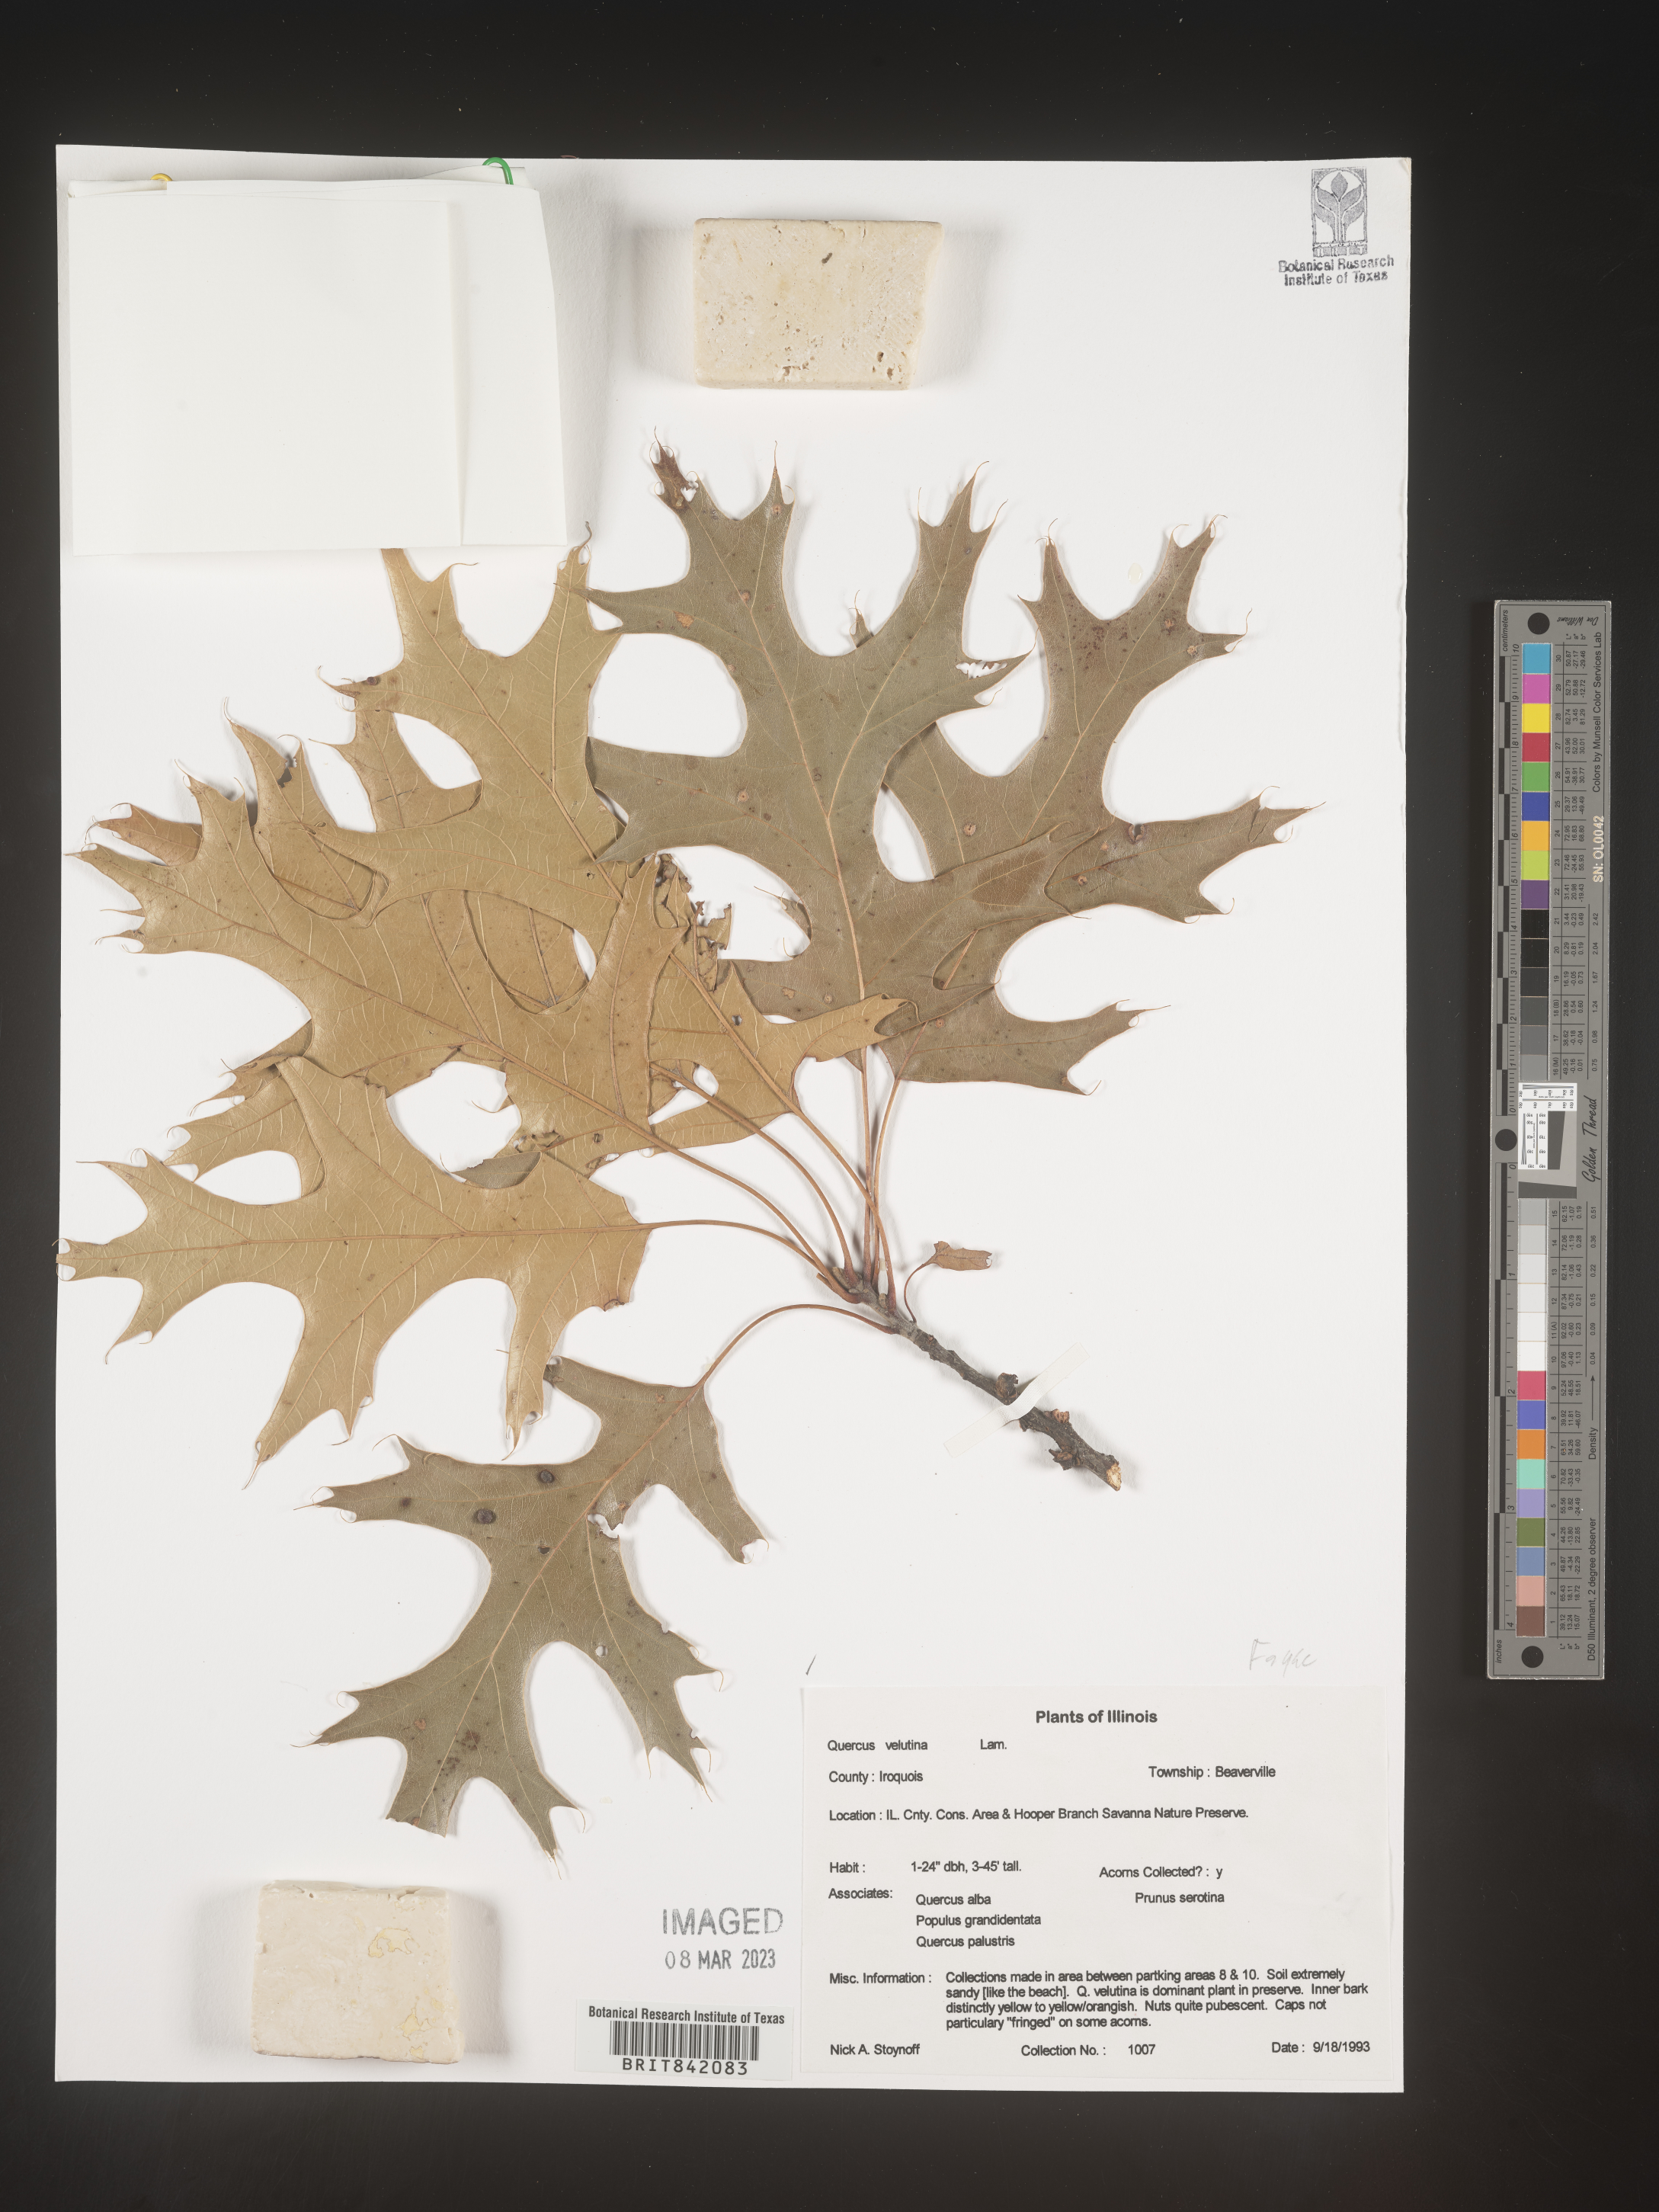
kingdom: Plantae
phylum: Tracheophyta
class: Magnoliopsida
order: Fagales
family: Fagaceae
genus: Quercus
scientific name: Quercus velutina
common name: Black oak
